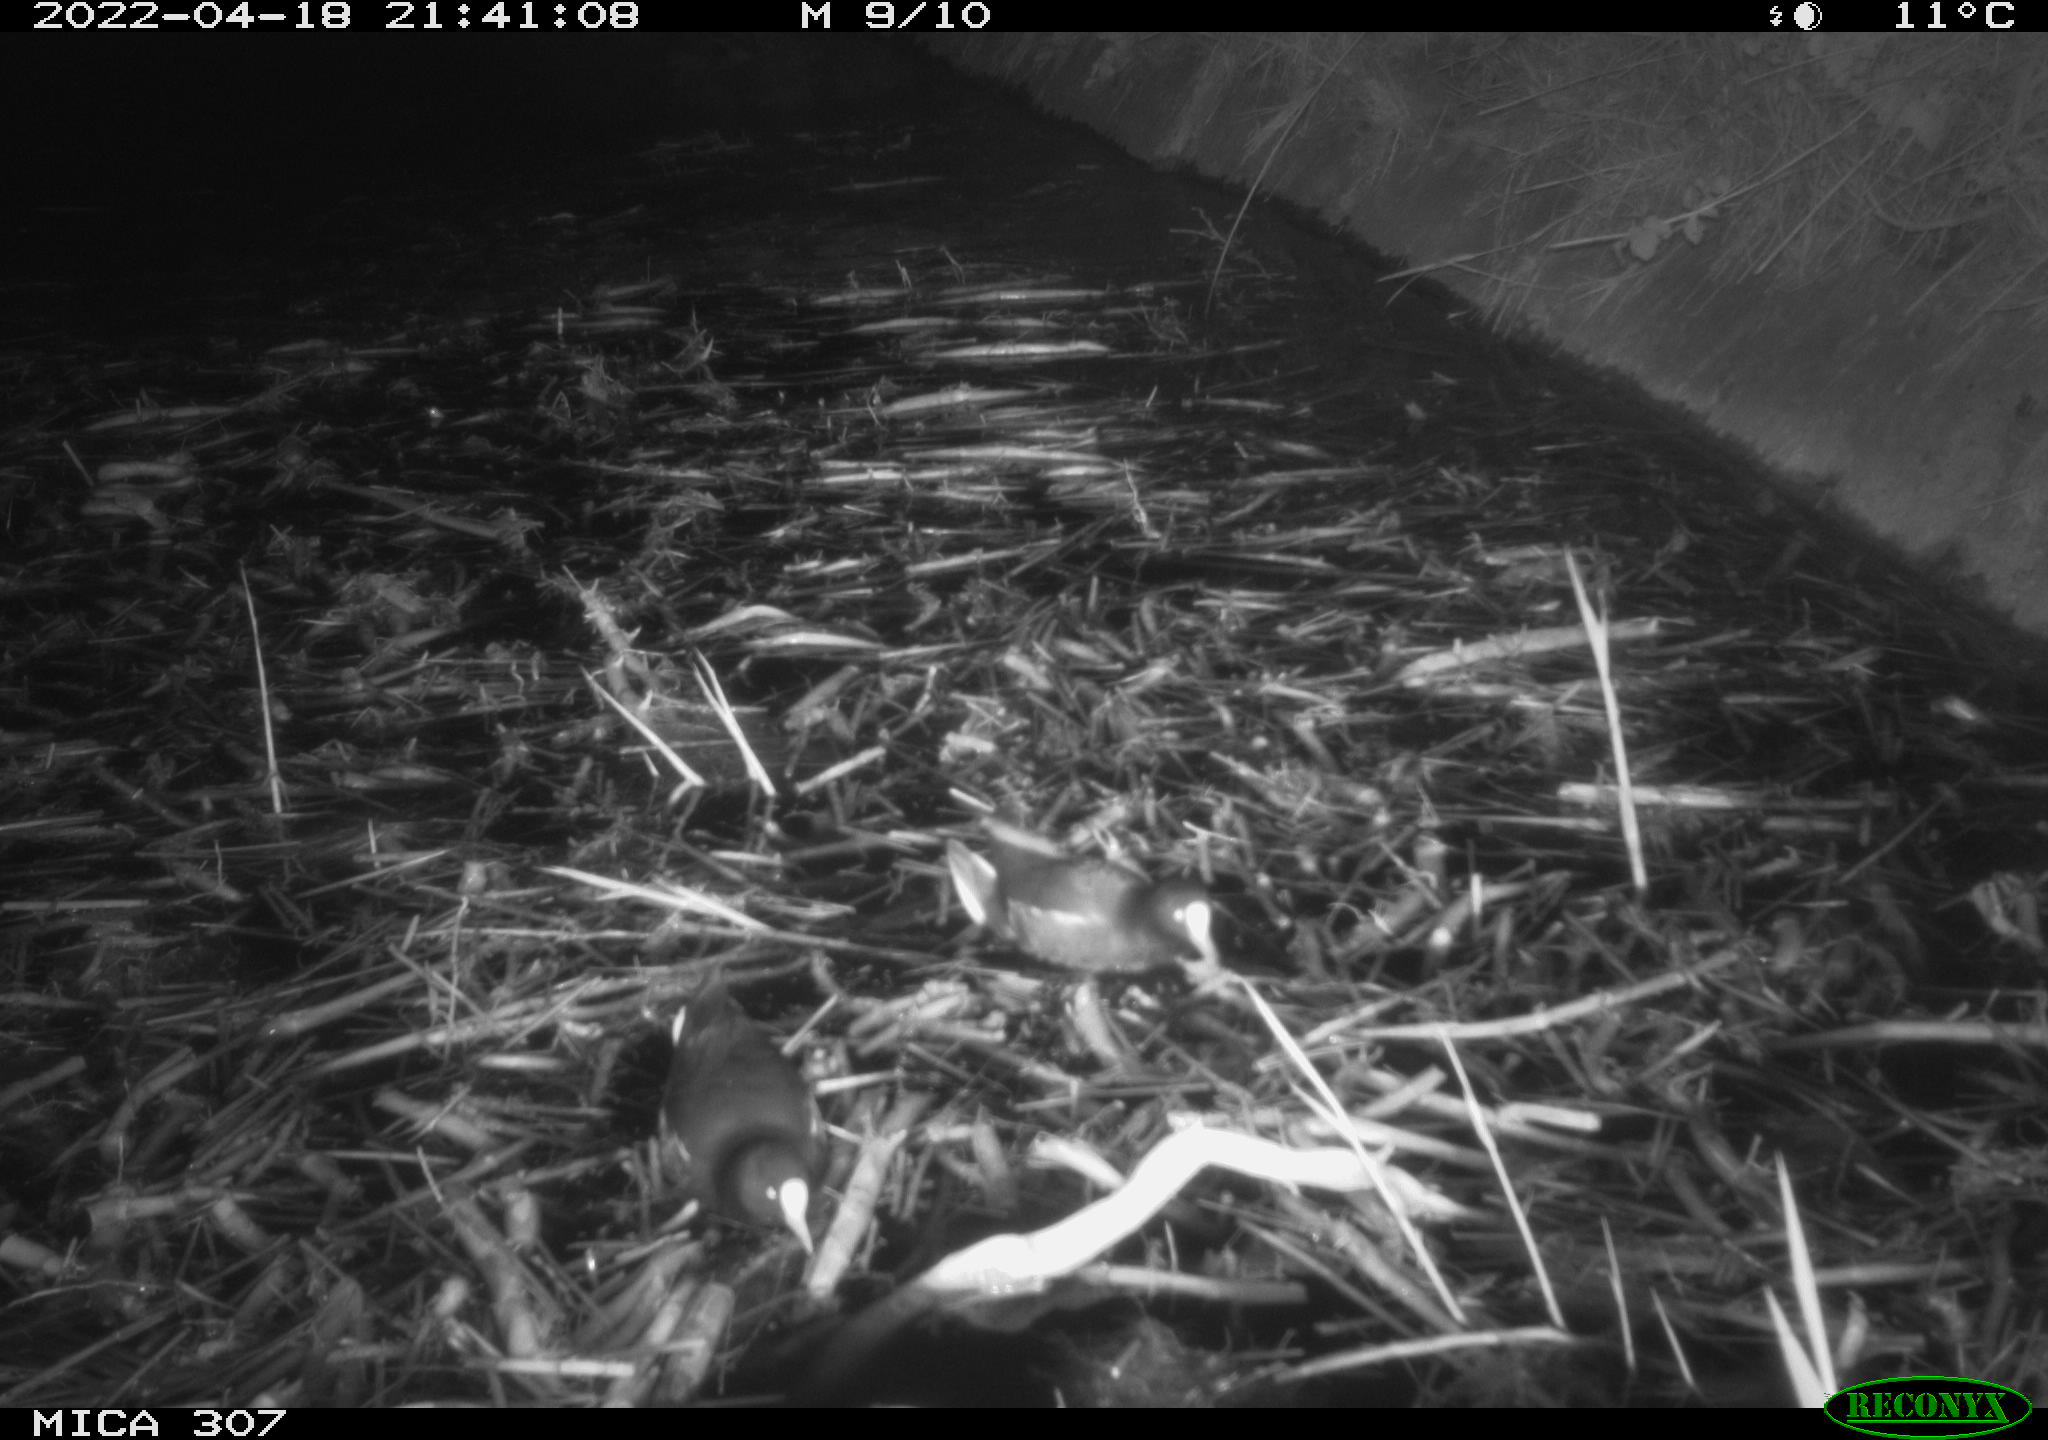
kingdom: Animalia
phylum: Chordata
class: Aves
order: Gruiformes
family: Rallidae
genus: Gallinula
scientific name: Gallinula chloropus
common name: Common moorhen
